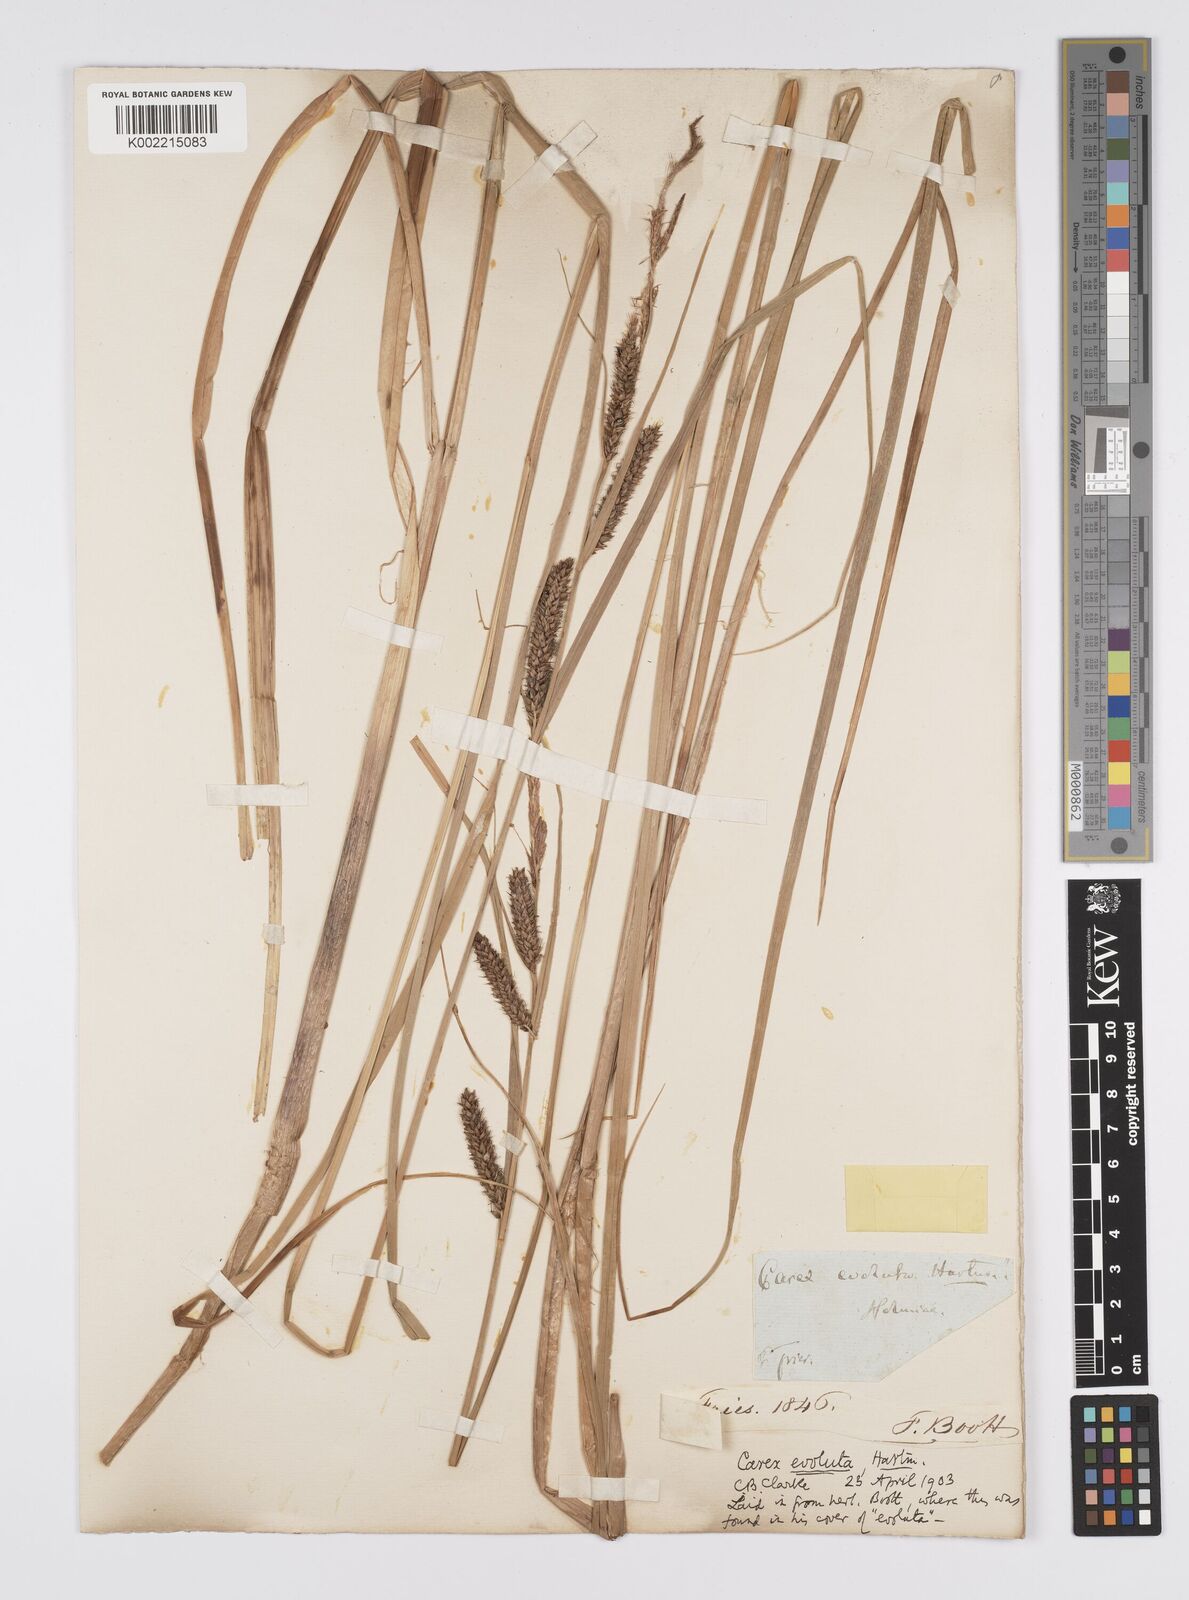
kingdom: Plantae
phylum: Tracheophyta
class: Liliopsida
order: Poales
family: Cyperaceae
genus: Carex
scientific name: Carex evoluta
